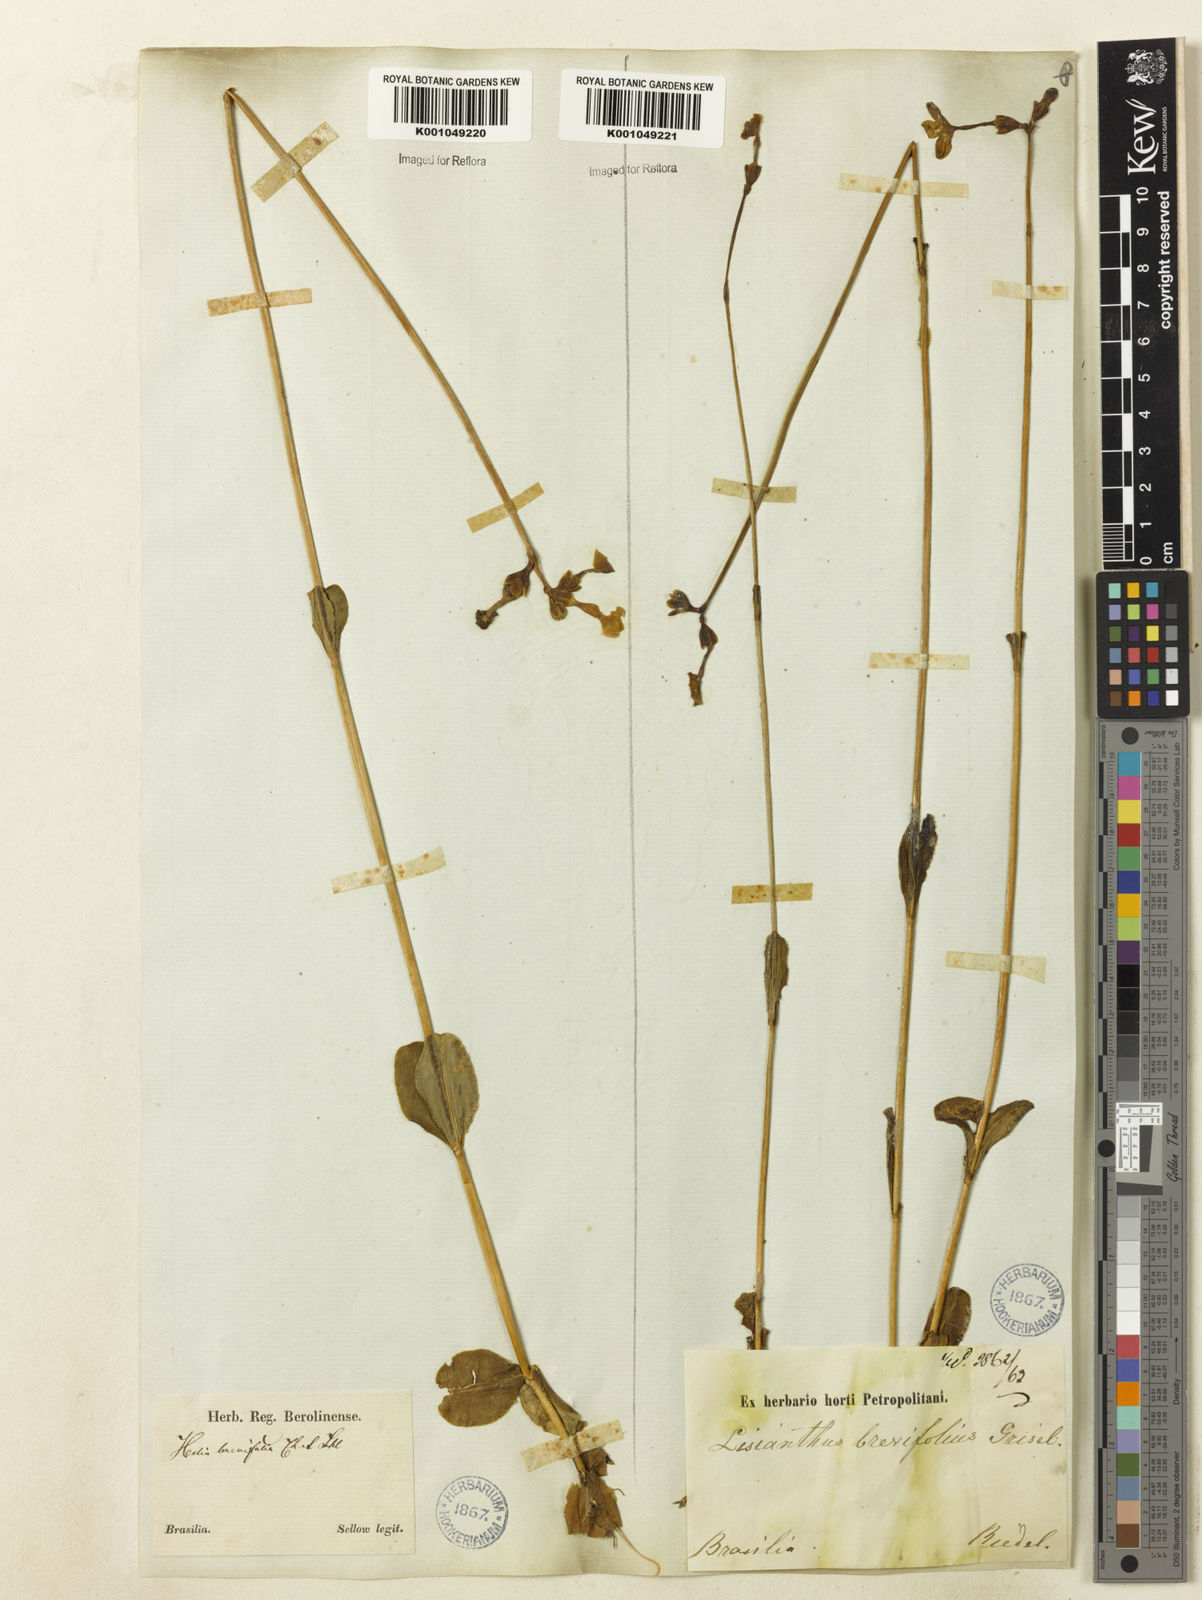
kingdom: Plantae
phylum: Tracheophyta
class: Magnoliopsida
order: Gentianales
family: Gentianaceae
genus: Irlbachia
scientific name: Irlbachia oblongifolia
